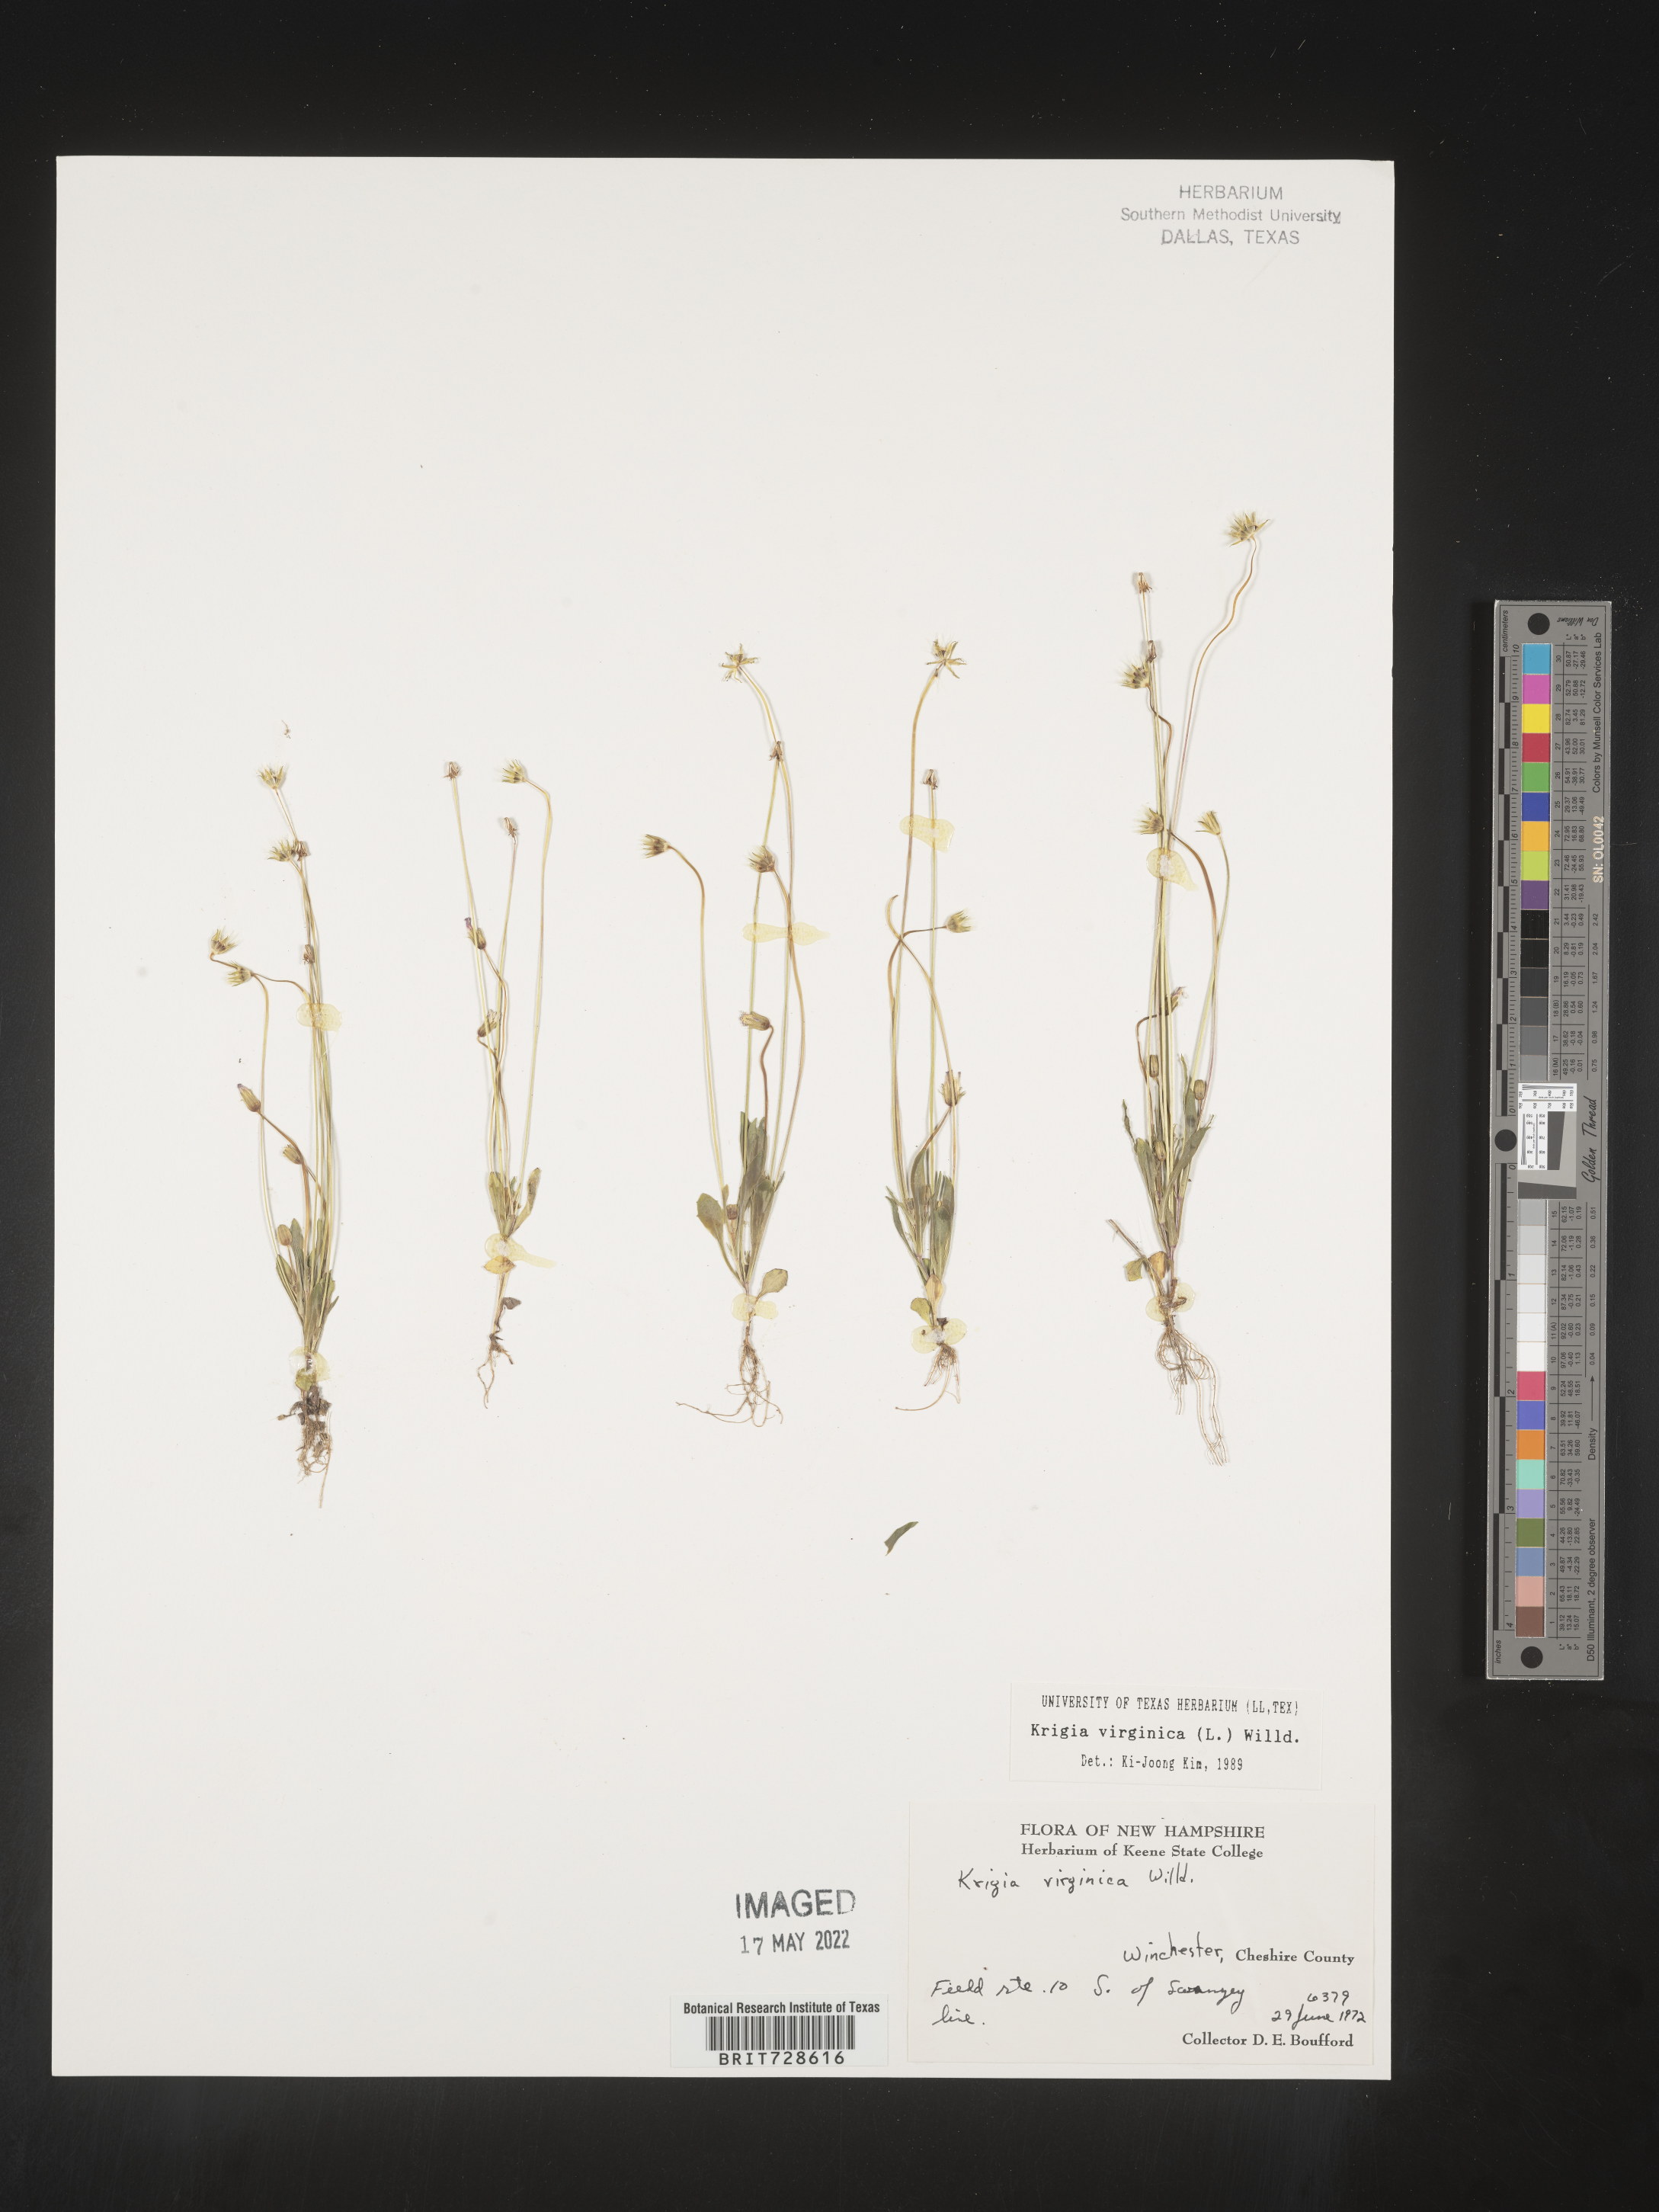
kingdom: Plantae
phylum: Tracheophyta
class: Magnoliopsida
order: Asterales
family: Asteraceae
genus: Krigia
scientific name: Krigia virginica
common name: Virginia dwarf-dandelion
